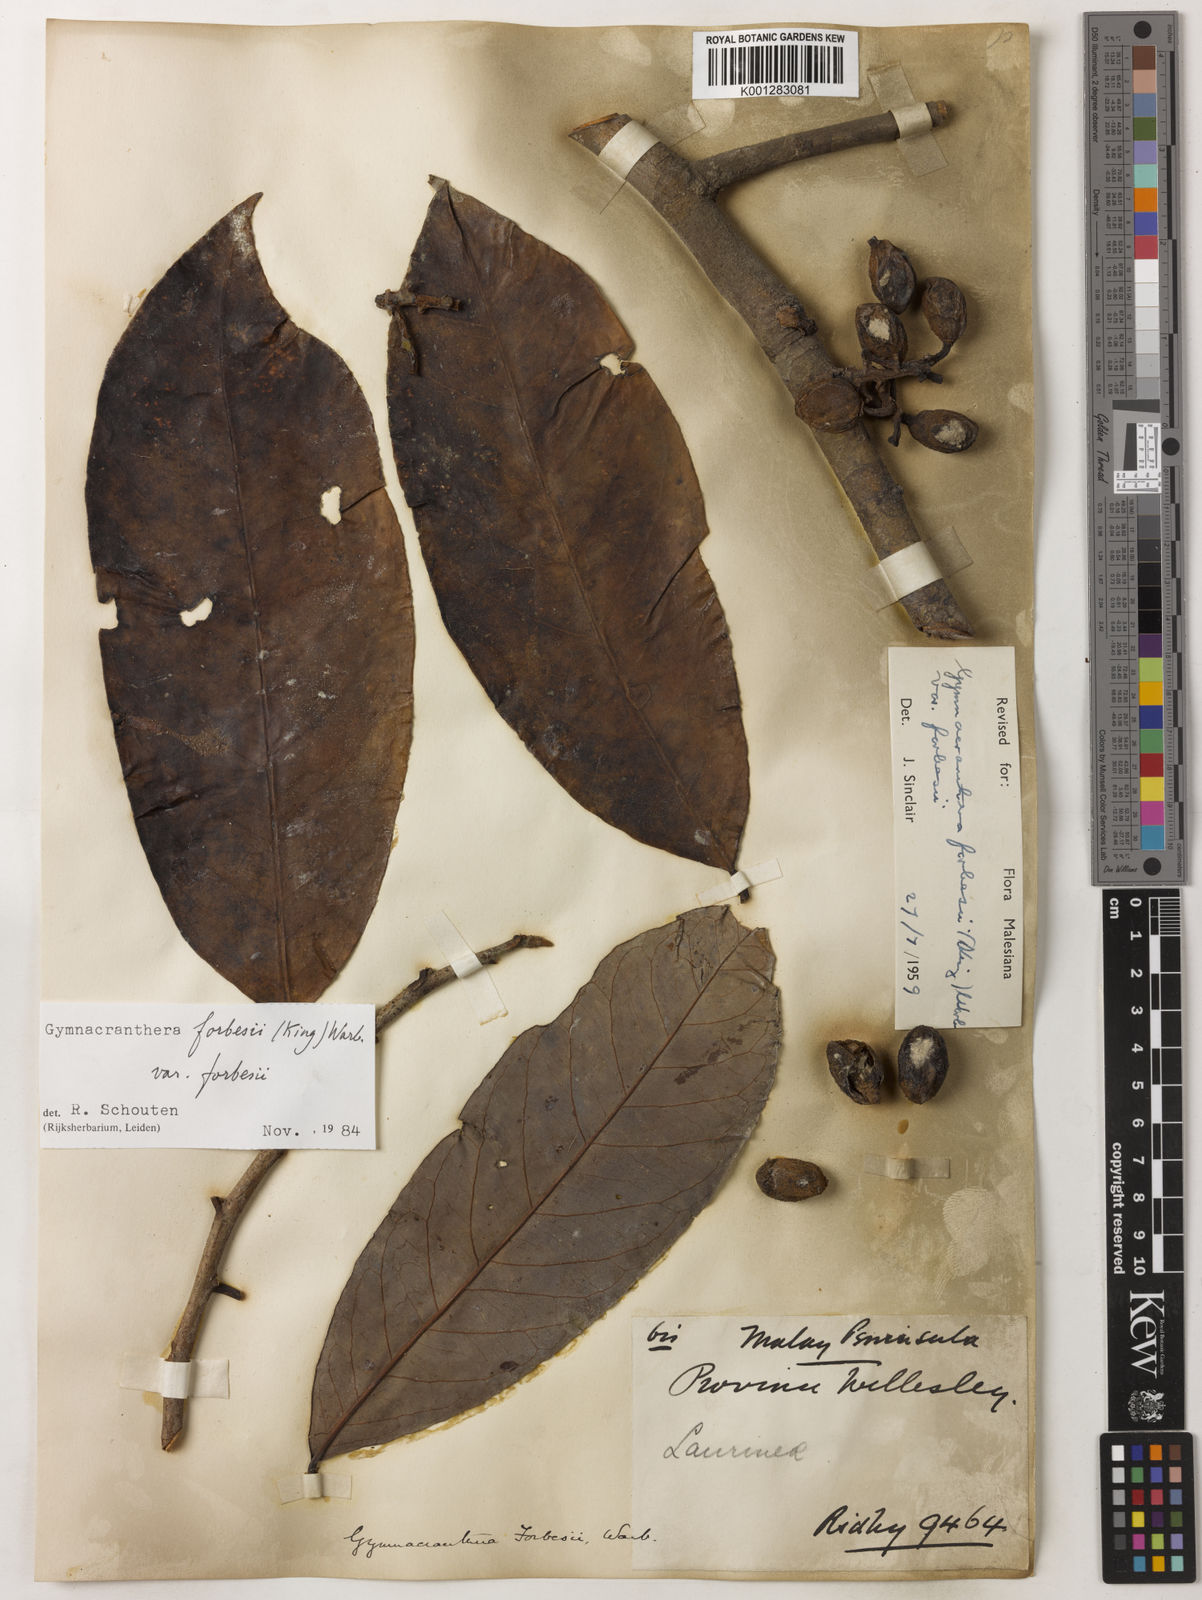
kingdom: Plantae
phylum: Tracheophyta
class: Magnoliopsida
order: Magnoliales
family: Myristicaceae
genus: Gymnacranthera
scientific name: Gymnacranthera forbesii
